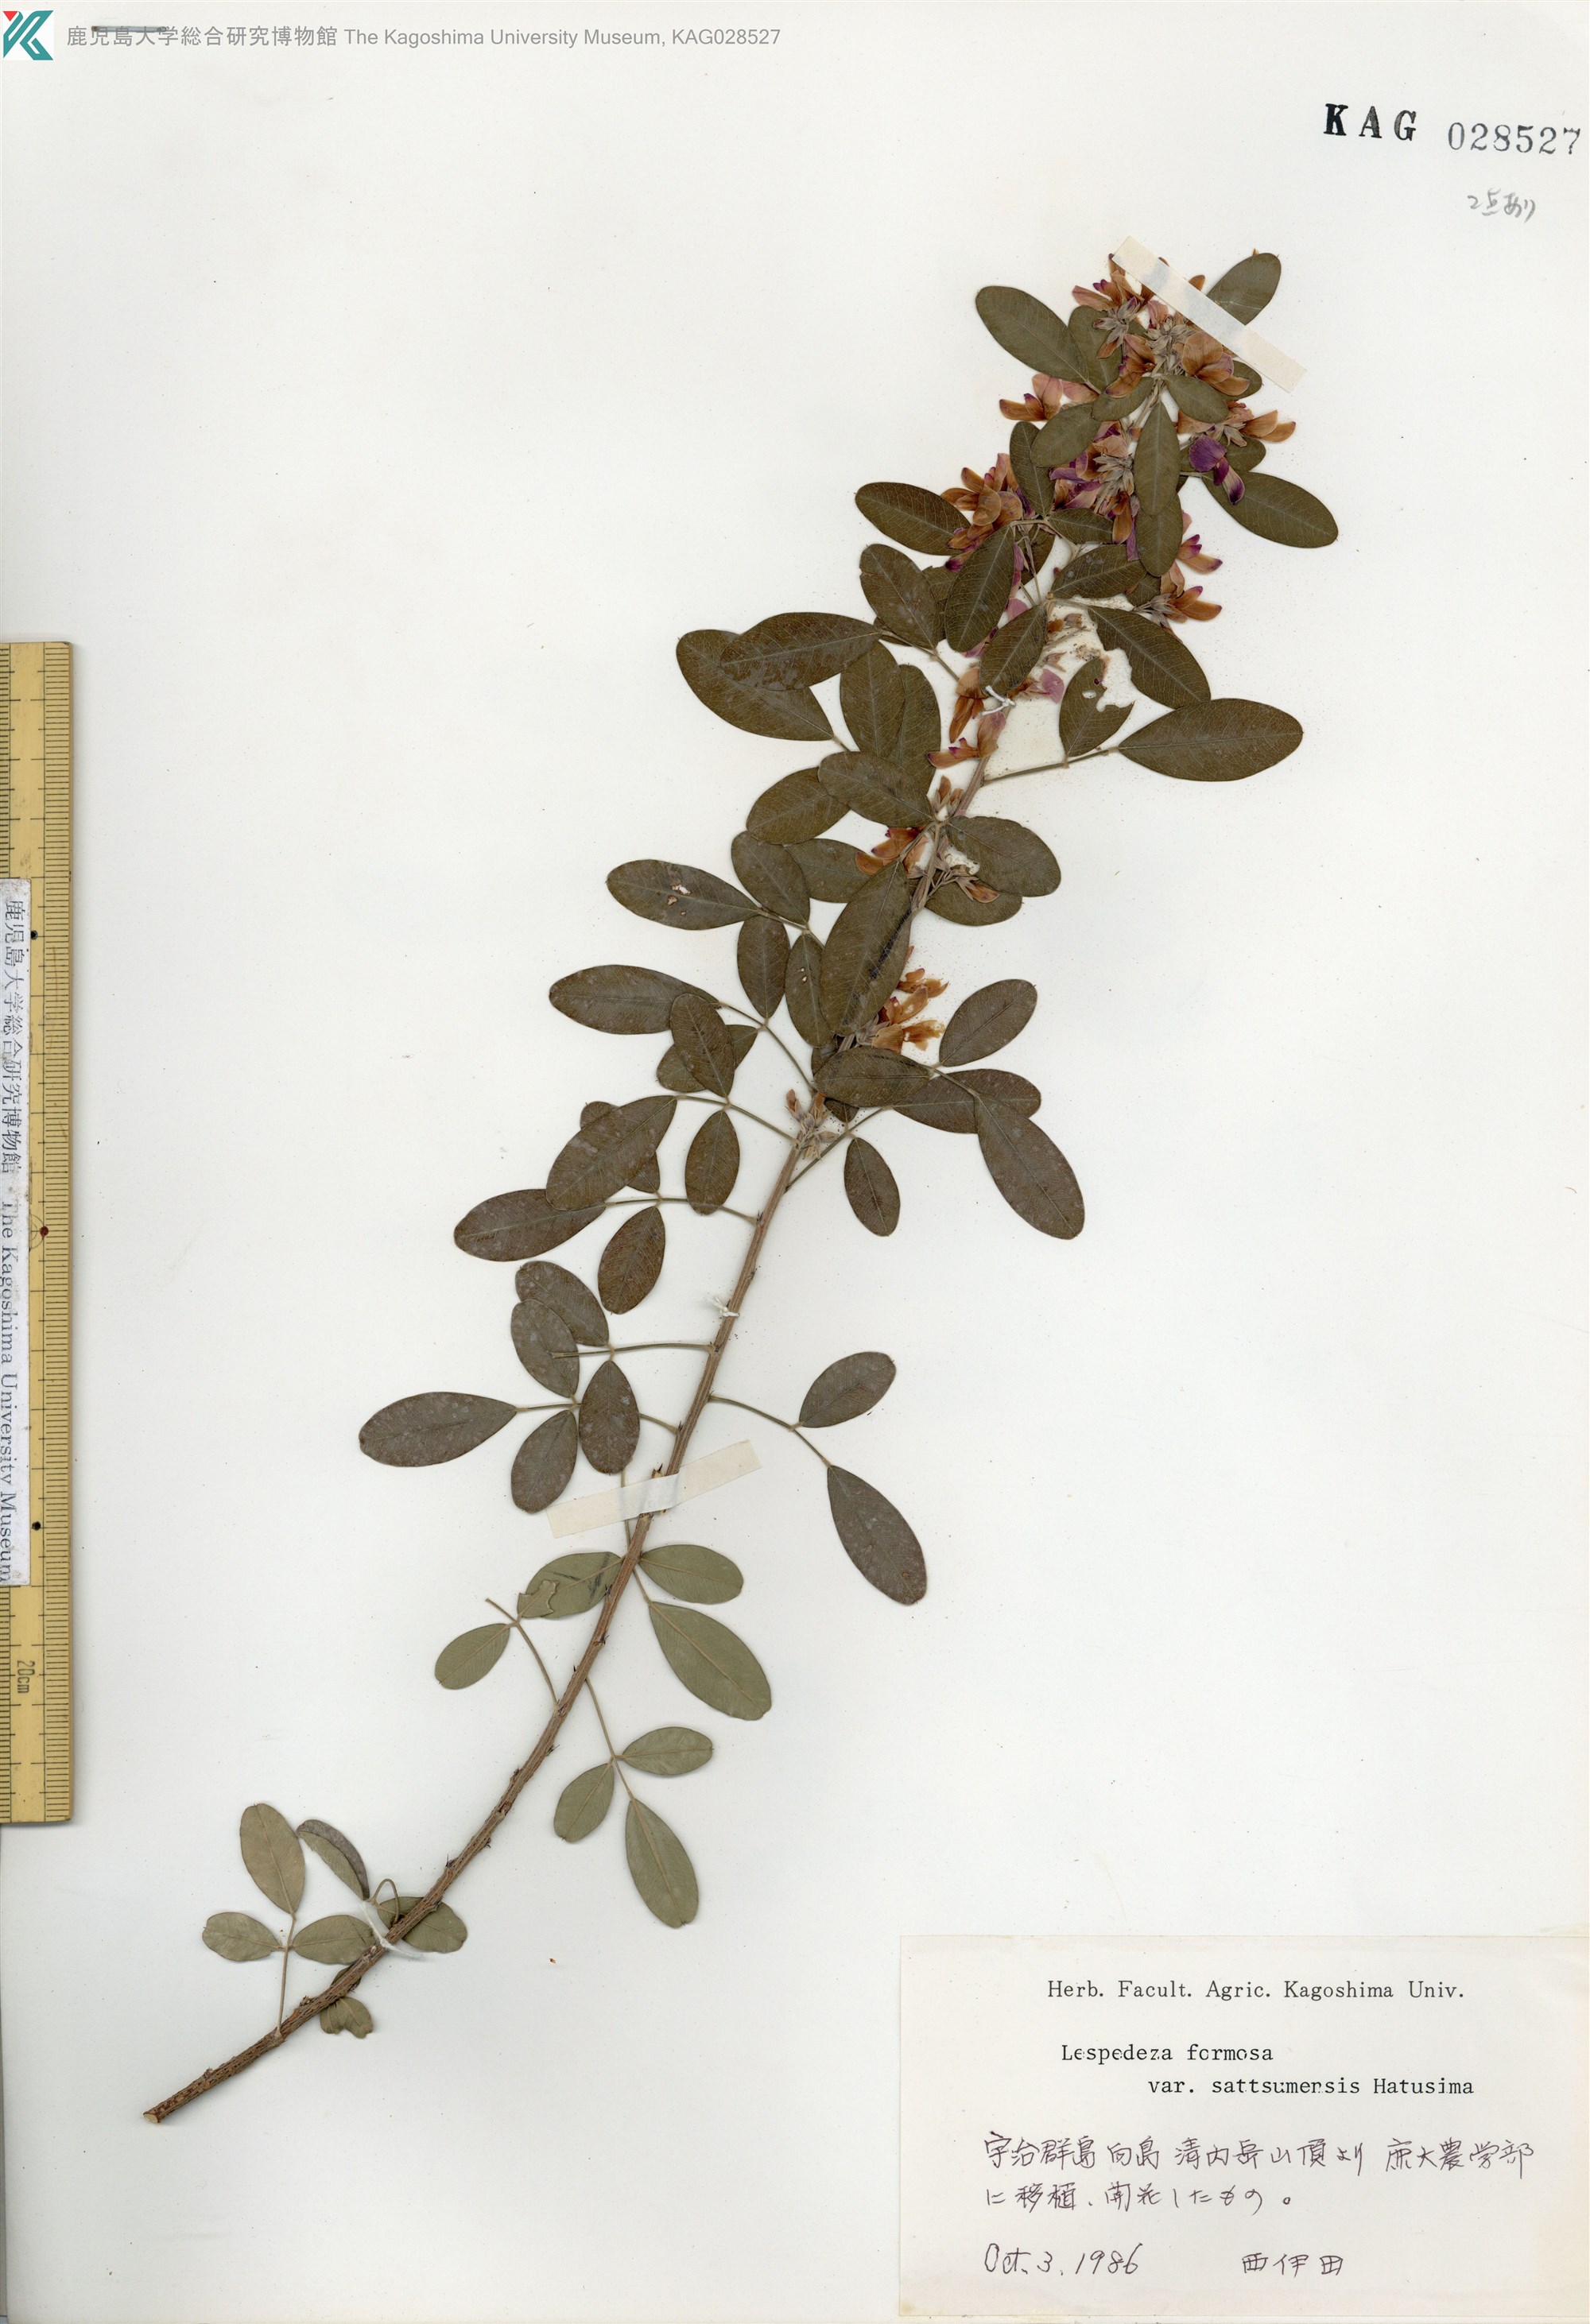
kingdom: Plantae
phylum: Tracheophyta
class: Magnoliopsida
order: Fabales
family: Fabaceae
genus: Lespedeza
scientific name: Lespedeza thunbergii
